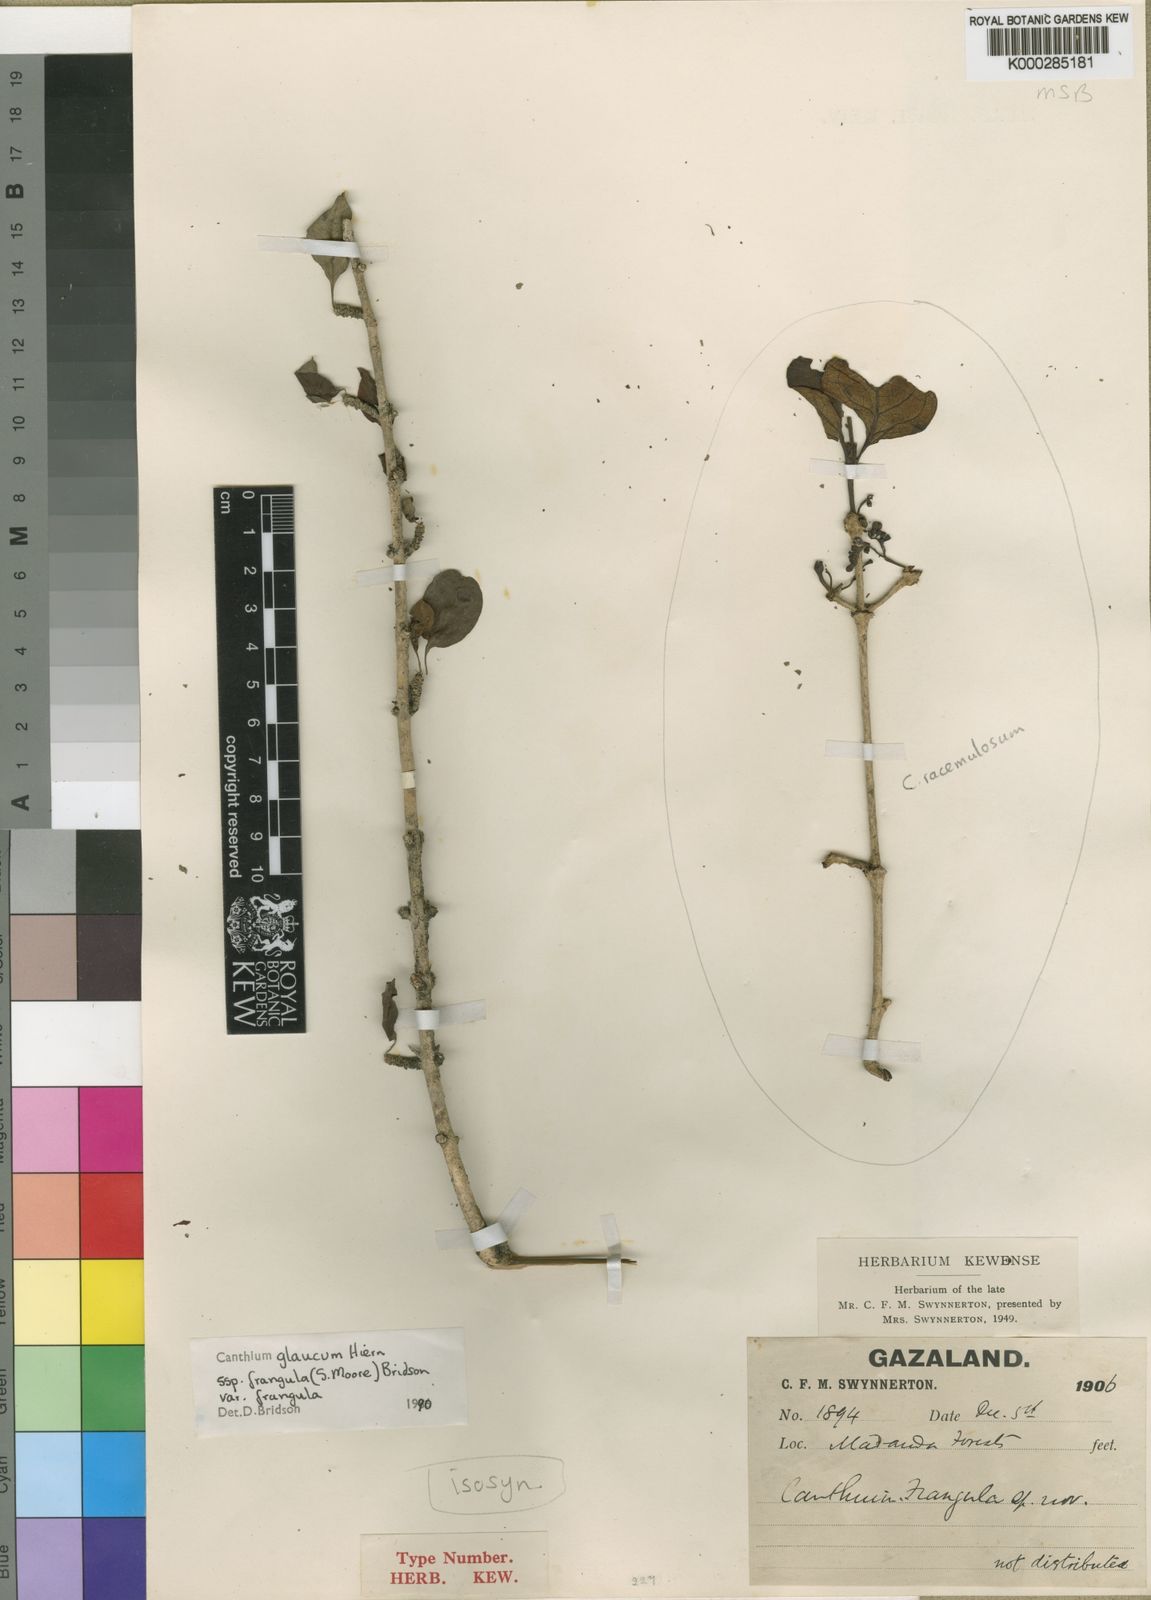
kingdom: Plantae
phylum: Tracheophyta
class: Magnoliopsida
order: Gentianales
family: Rubiaceae
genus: Canthium
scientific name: Canthium glaucum
